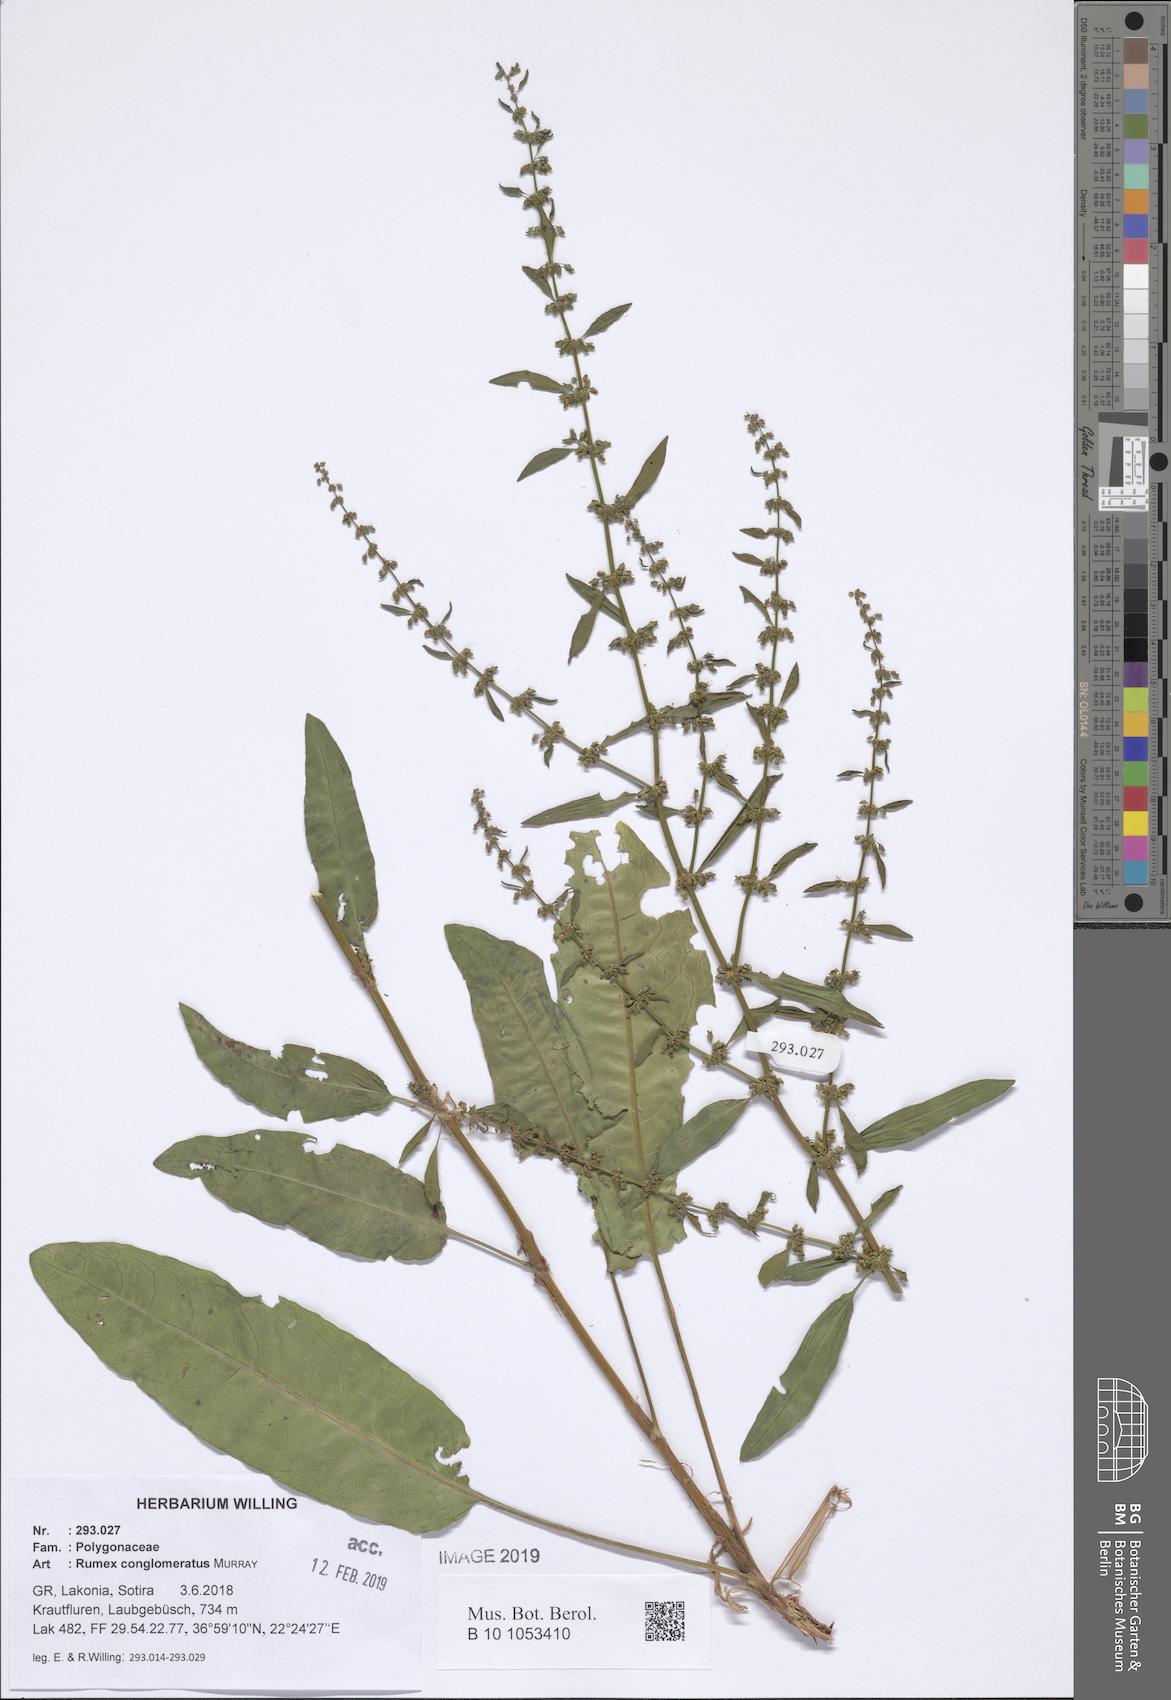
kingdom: Plantae
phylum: Tracheophyta
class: Magnoliopsida
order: Caryophyllales
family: Polygonaceae
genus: Rumex
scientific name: Rumex conglomeratus
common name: Clustered dock
